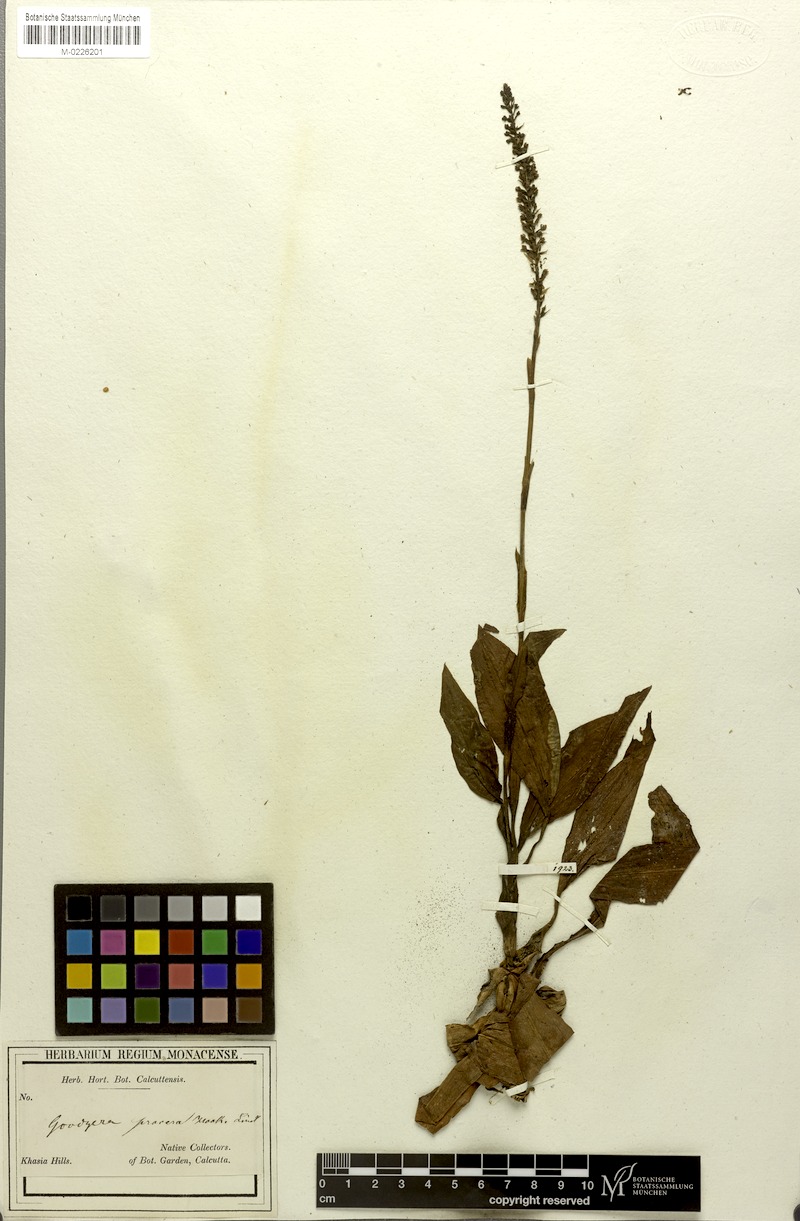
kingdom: Plantae
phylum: Tracheophyta
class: Liliopsida
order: Asparagales
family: Orchidaceae
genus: Goodyera
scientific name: Goodyera procera
